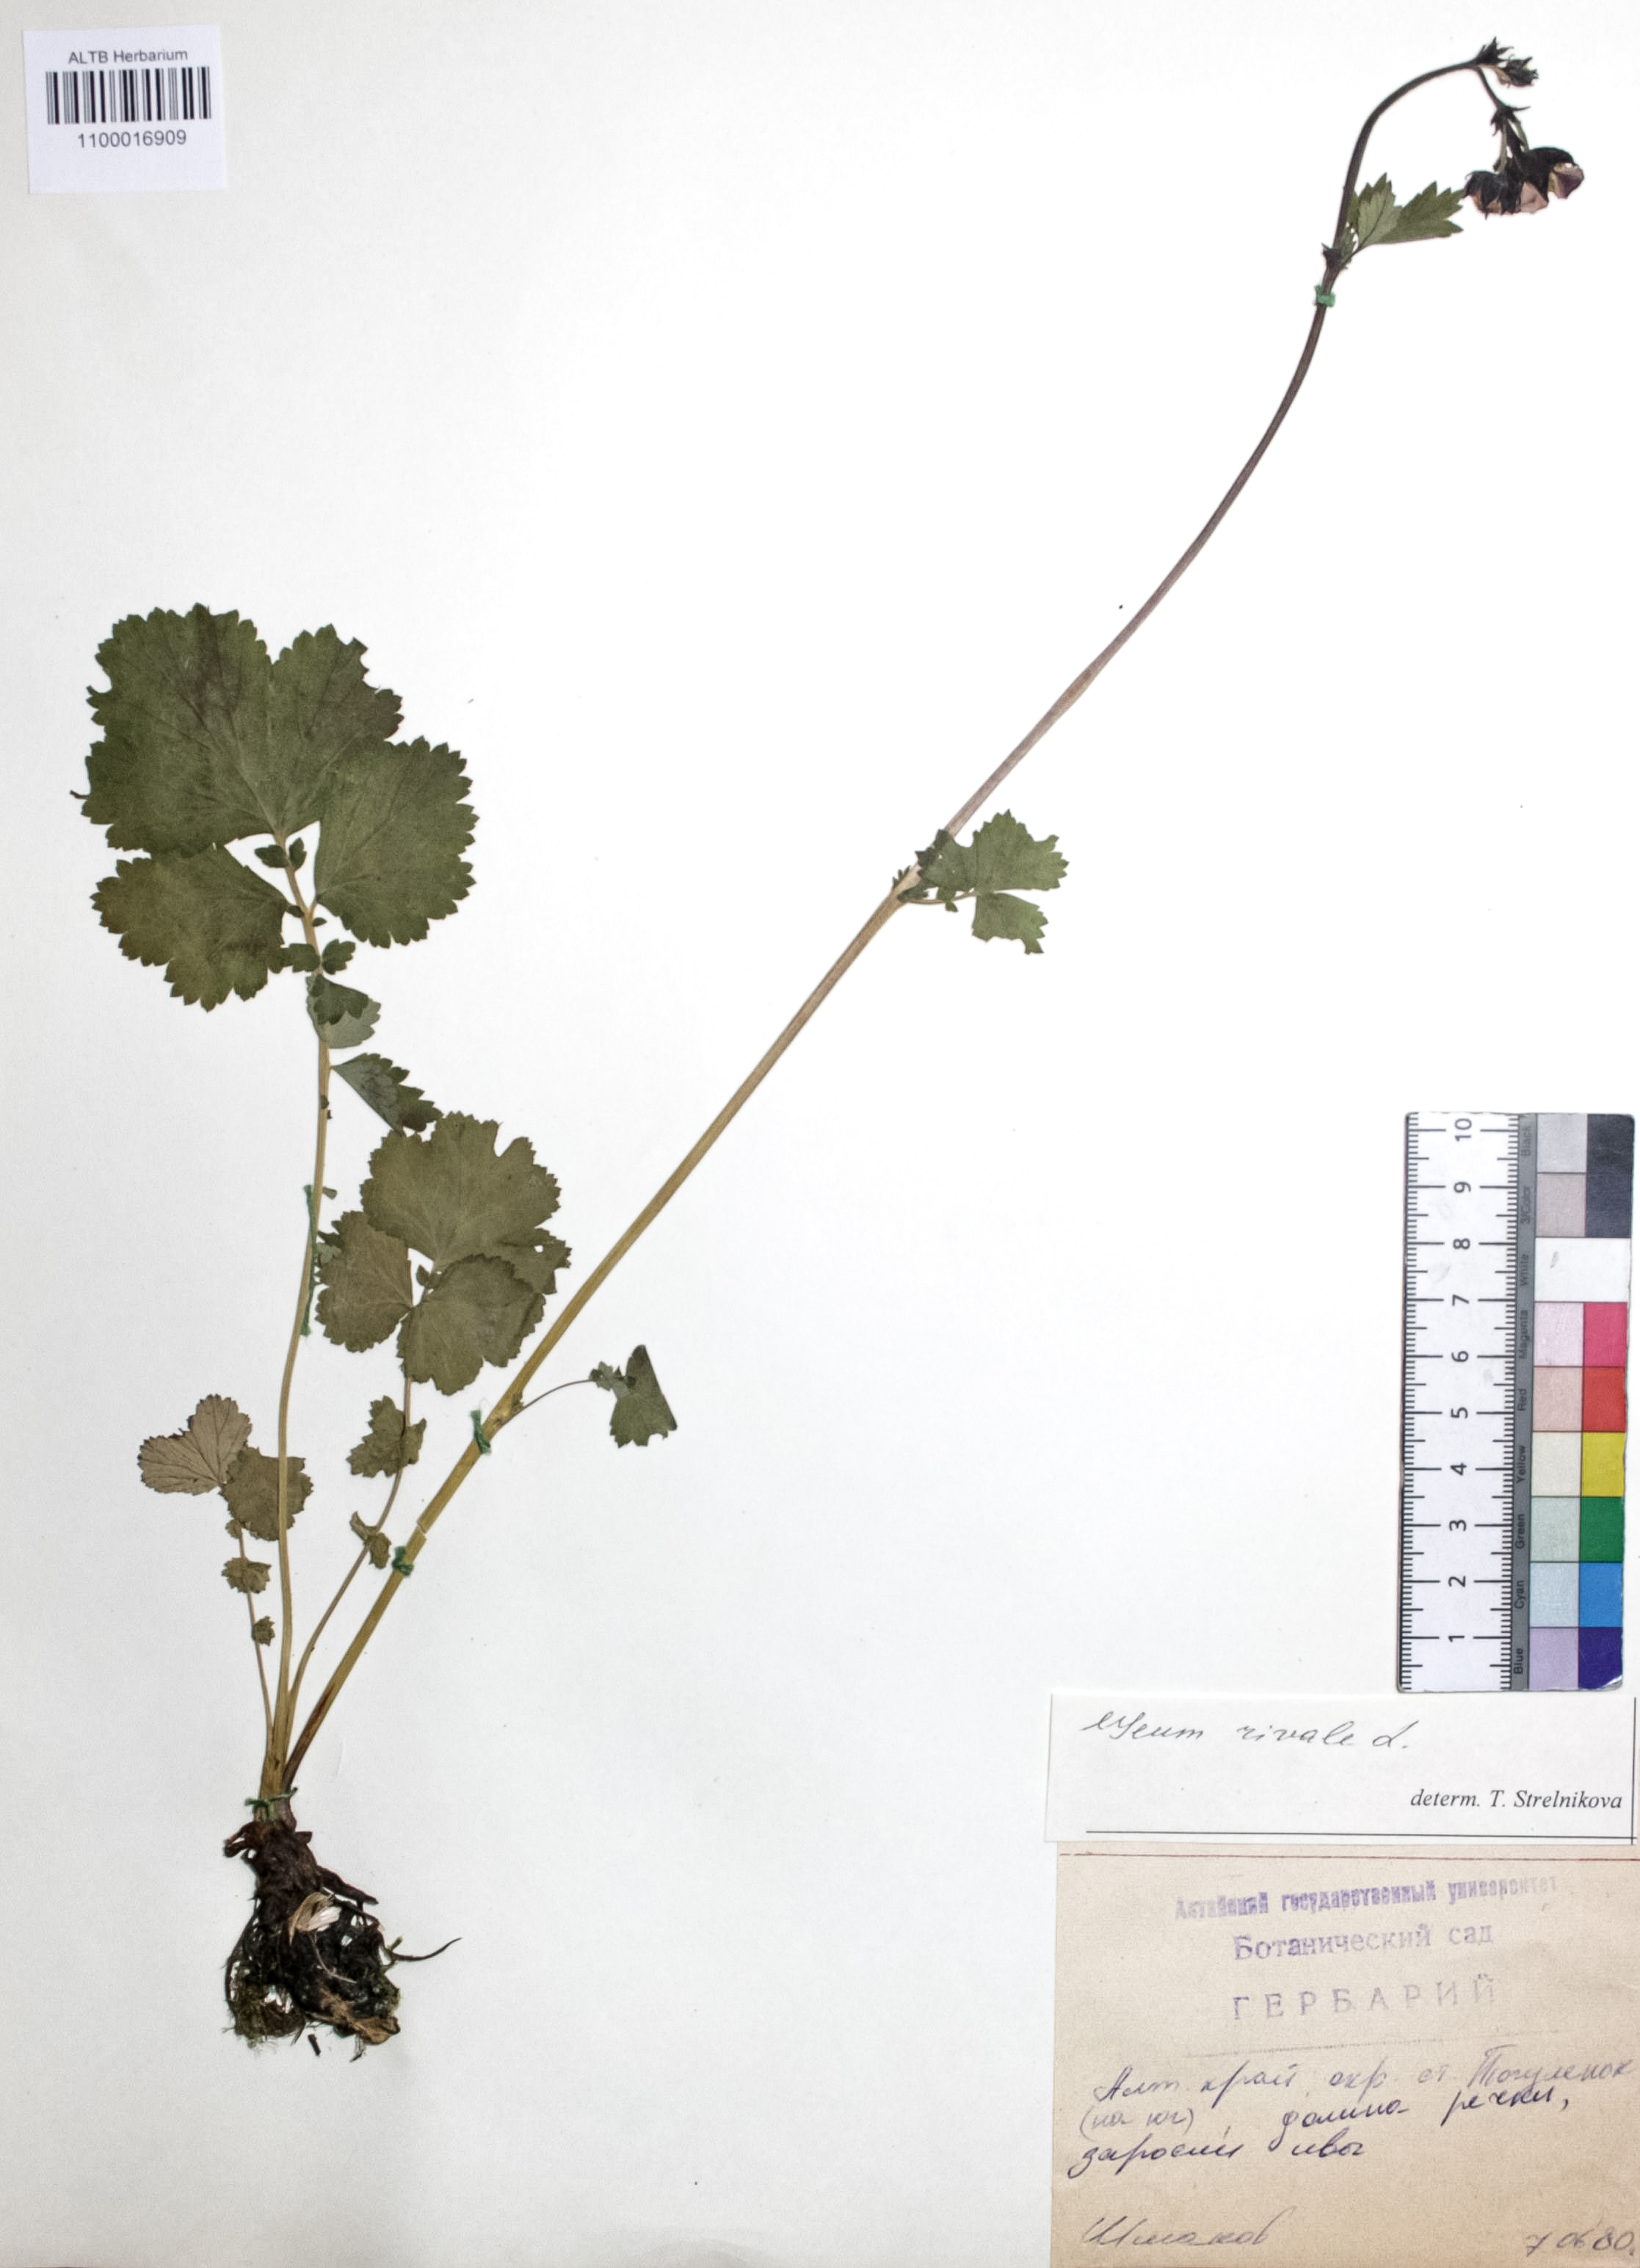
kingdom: Plantae
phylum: Tracheophyta
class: Magnoliopsida
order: Rosales
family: Rosaceae
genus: Geum
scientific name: Geum rivale
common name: Water avens
